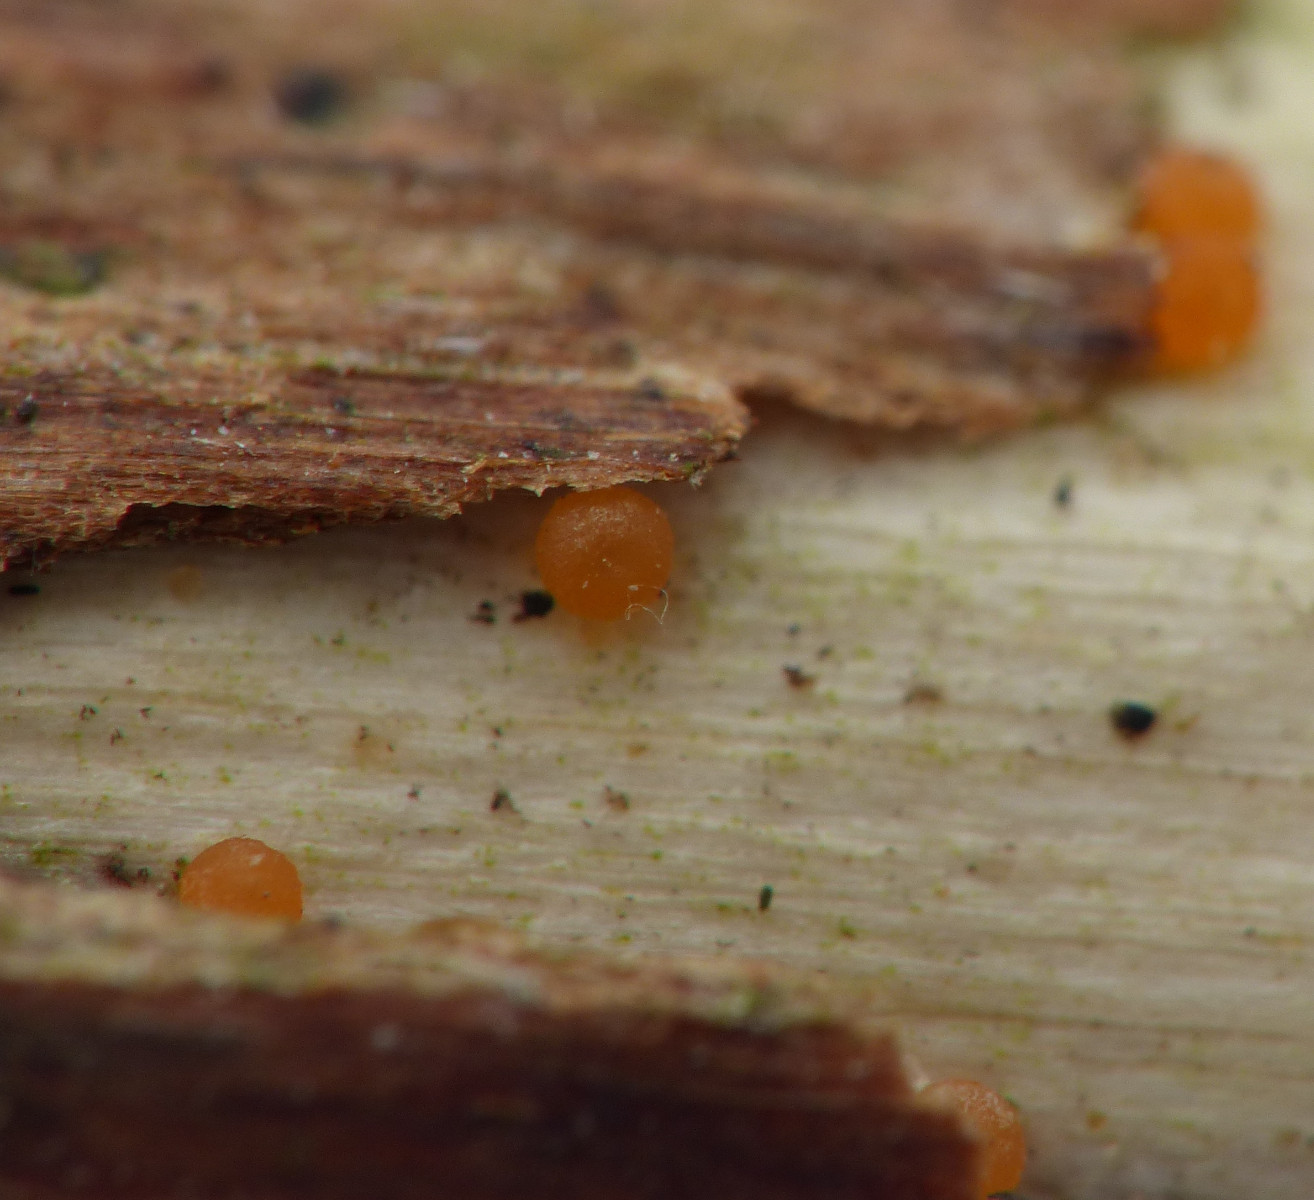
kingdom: Fungi
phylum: Ascomycota
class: Sordariomycetes
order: Hypocreales
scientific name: Hypocreales
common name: kødkerneordenen
